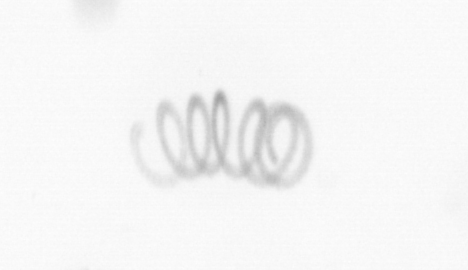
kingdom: Chromista
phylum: Ochrophyta
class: Bacillariophyceae
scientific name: Bacillariophyceae
